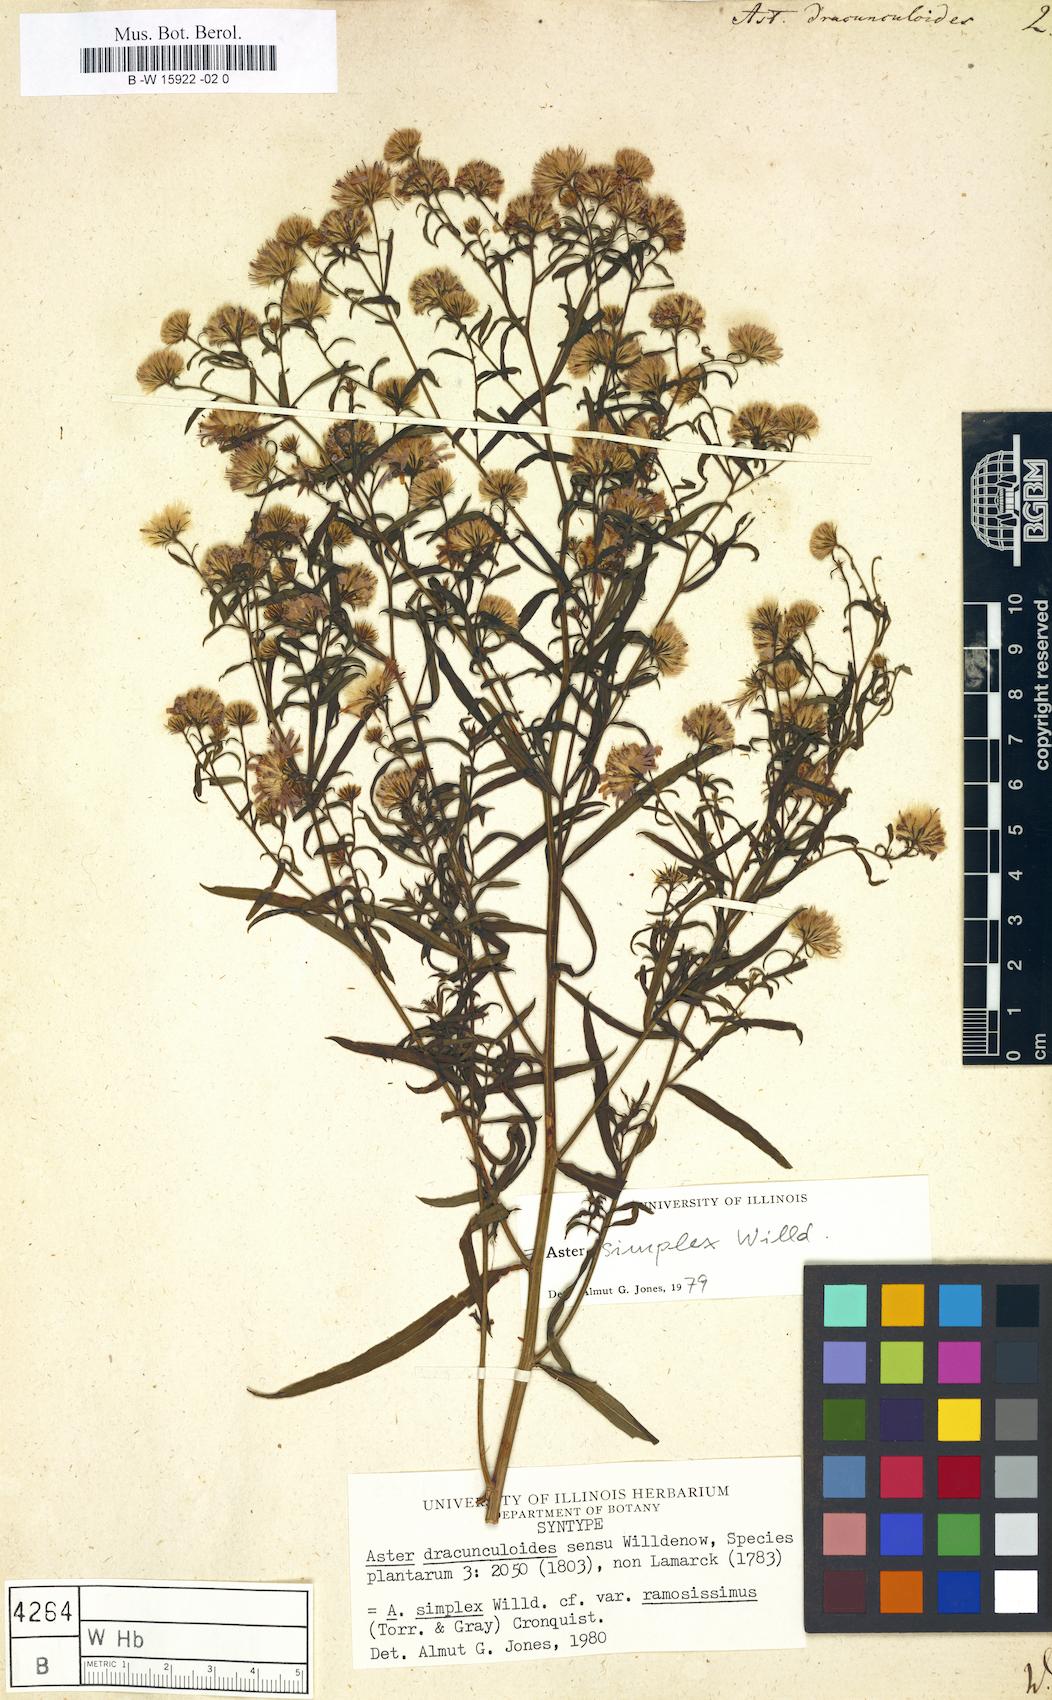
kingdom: Plantae
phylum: Tracheophyta
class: Magnoliopsida
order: Asterales
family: Asteraceae
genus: Aster
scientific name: Aster dracunculoides
